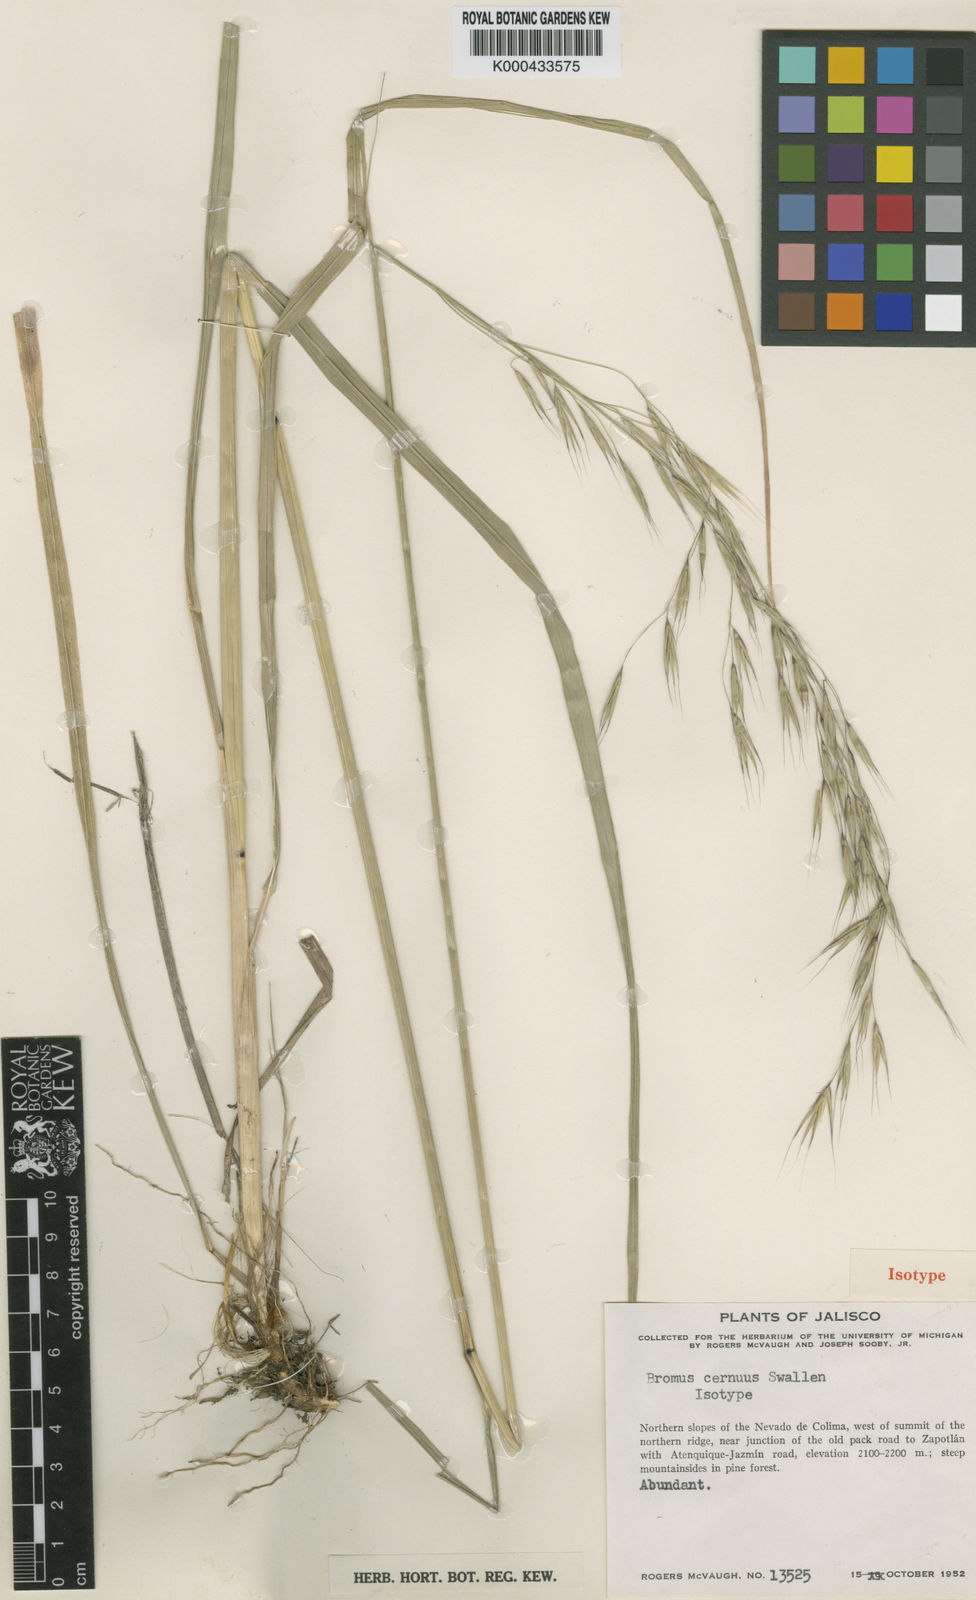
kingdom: Plantae
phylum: Tracheophyta
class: Liliopsida
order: Poales
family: Poaceae
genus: Festuca
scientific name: Festuca breviglumis
